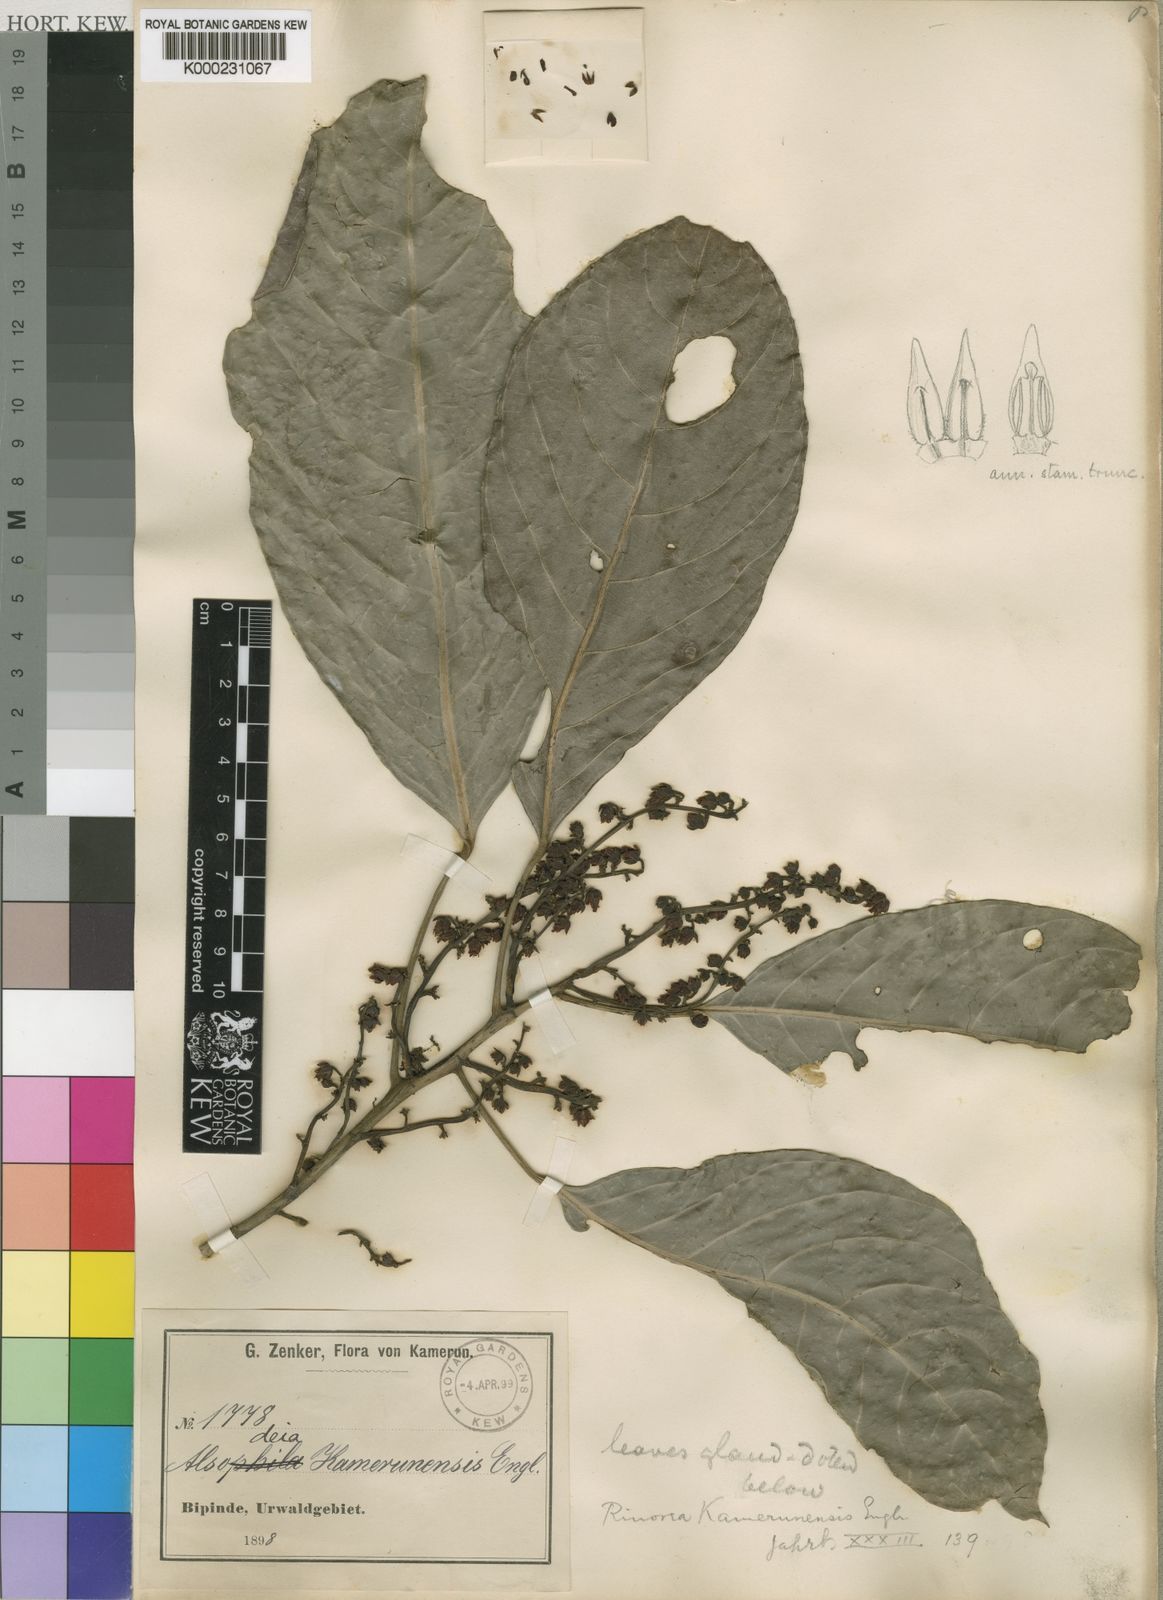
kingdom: Plantae
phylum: Tracheophyta
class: Magnoliopsida
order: Malpighiales
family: Violaceae
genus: Rinorea
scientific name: Rinorea kamerunensis
